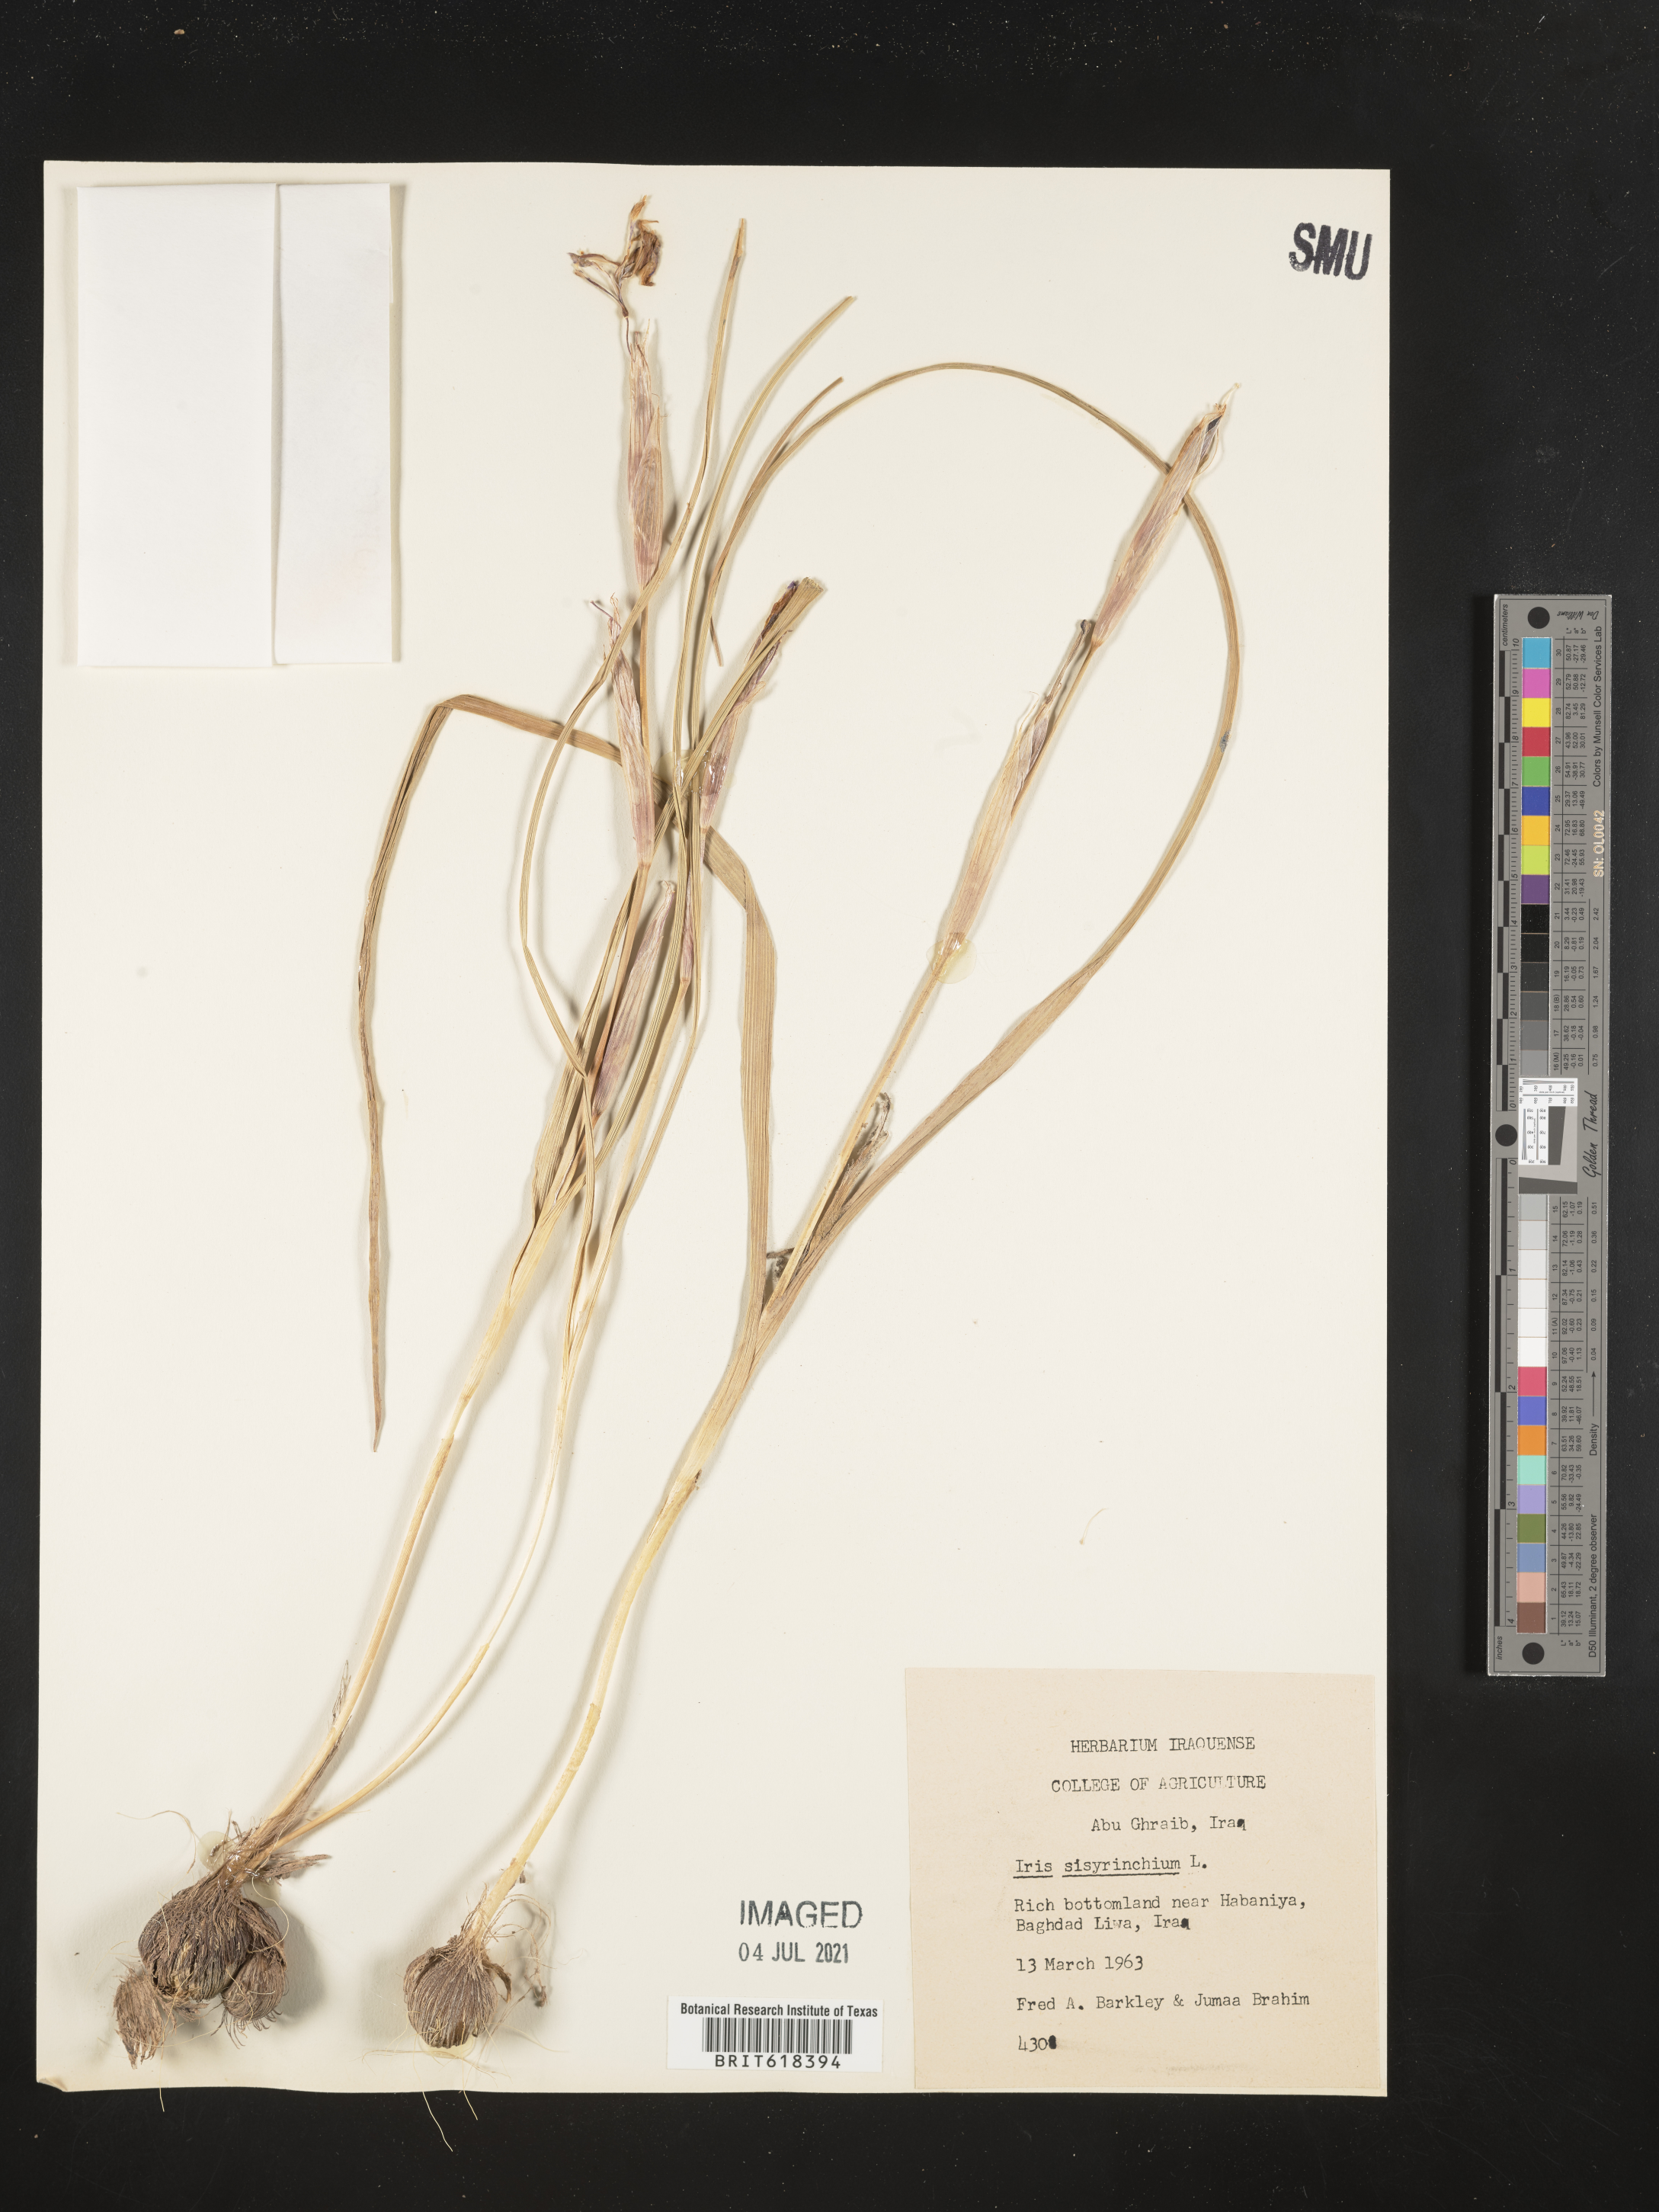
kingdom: Plantae
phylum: Tracheophyta
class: Liliopsida
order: Asparagales
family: Iridaceae
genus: Moraea
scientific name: Moraea sisyrinchium
